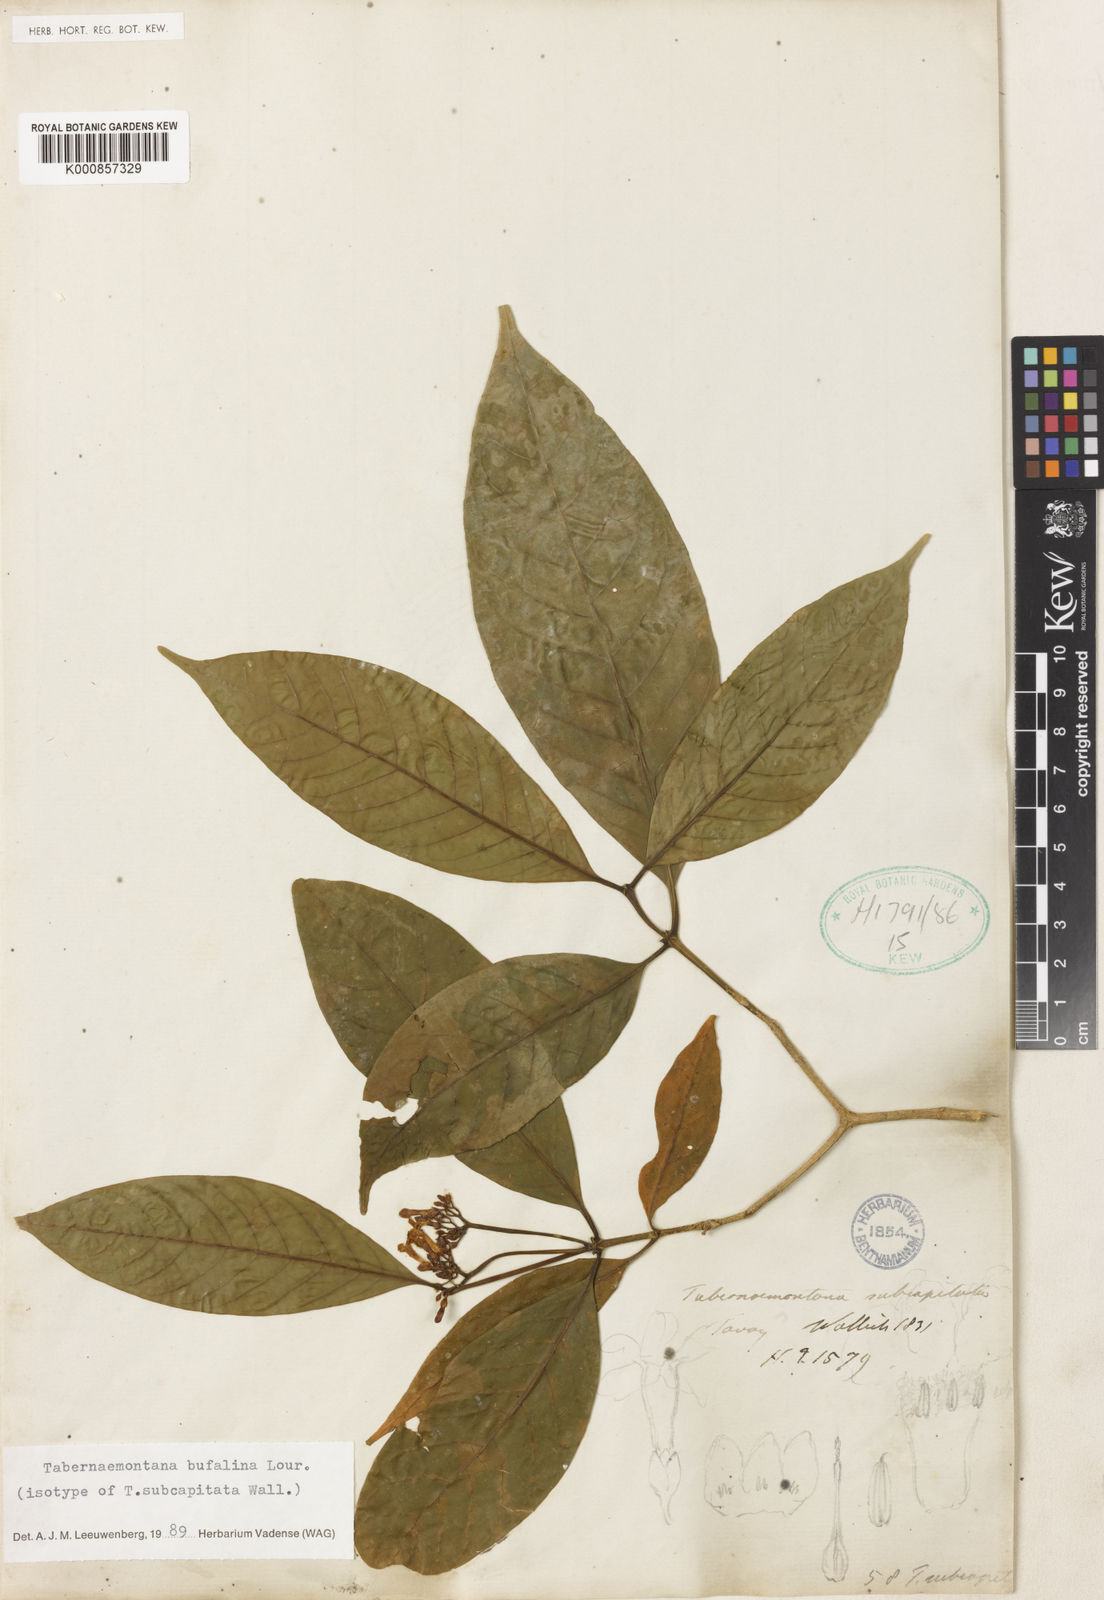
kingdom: Plantae
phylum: Tracheophyta
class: Magnoliopsida
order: Gentianales
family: Apocynaceae
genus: Tabernaemontana
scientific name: Tabernaemontana bufalina
